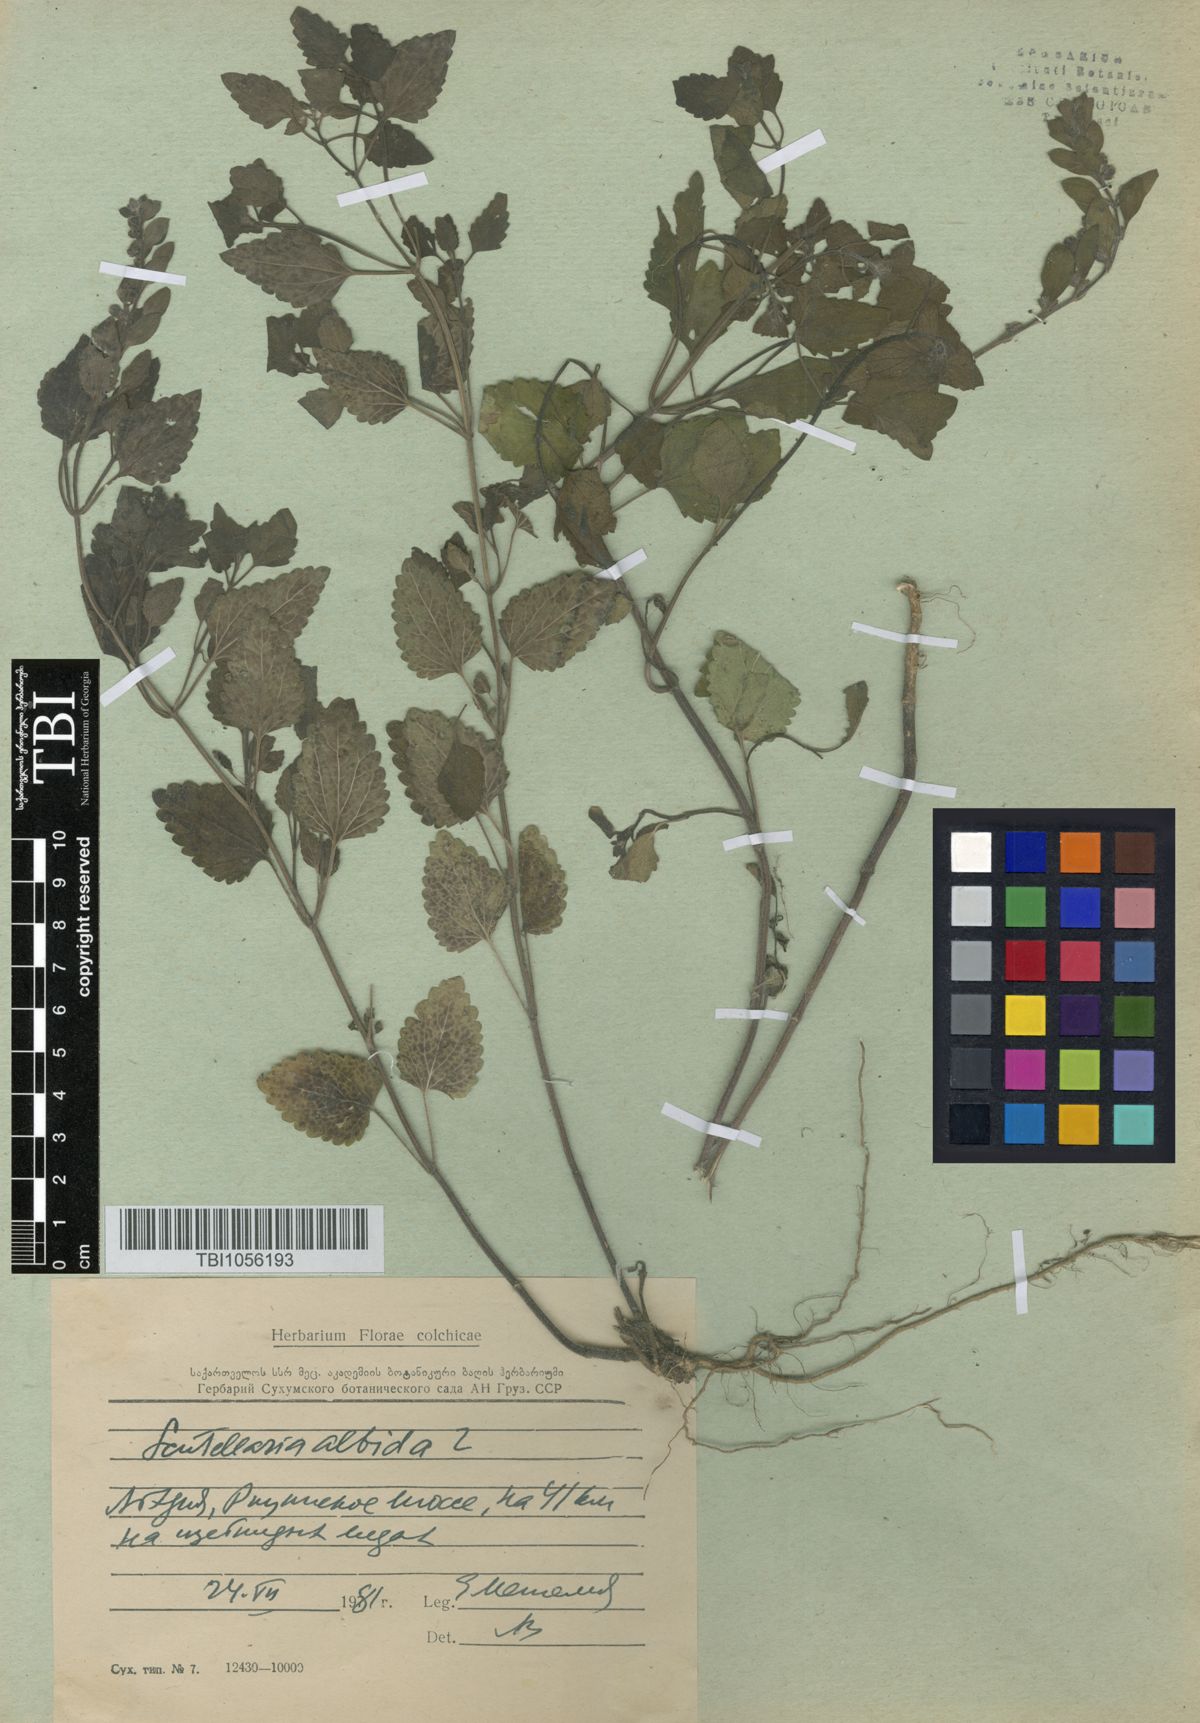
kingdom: Plantae
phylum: Tracheophyta
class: Magnoliopsida
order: Lamiales
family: Lamiaceae
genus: Scutellaria
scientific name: Scutellaria albida
